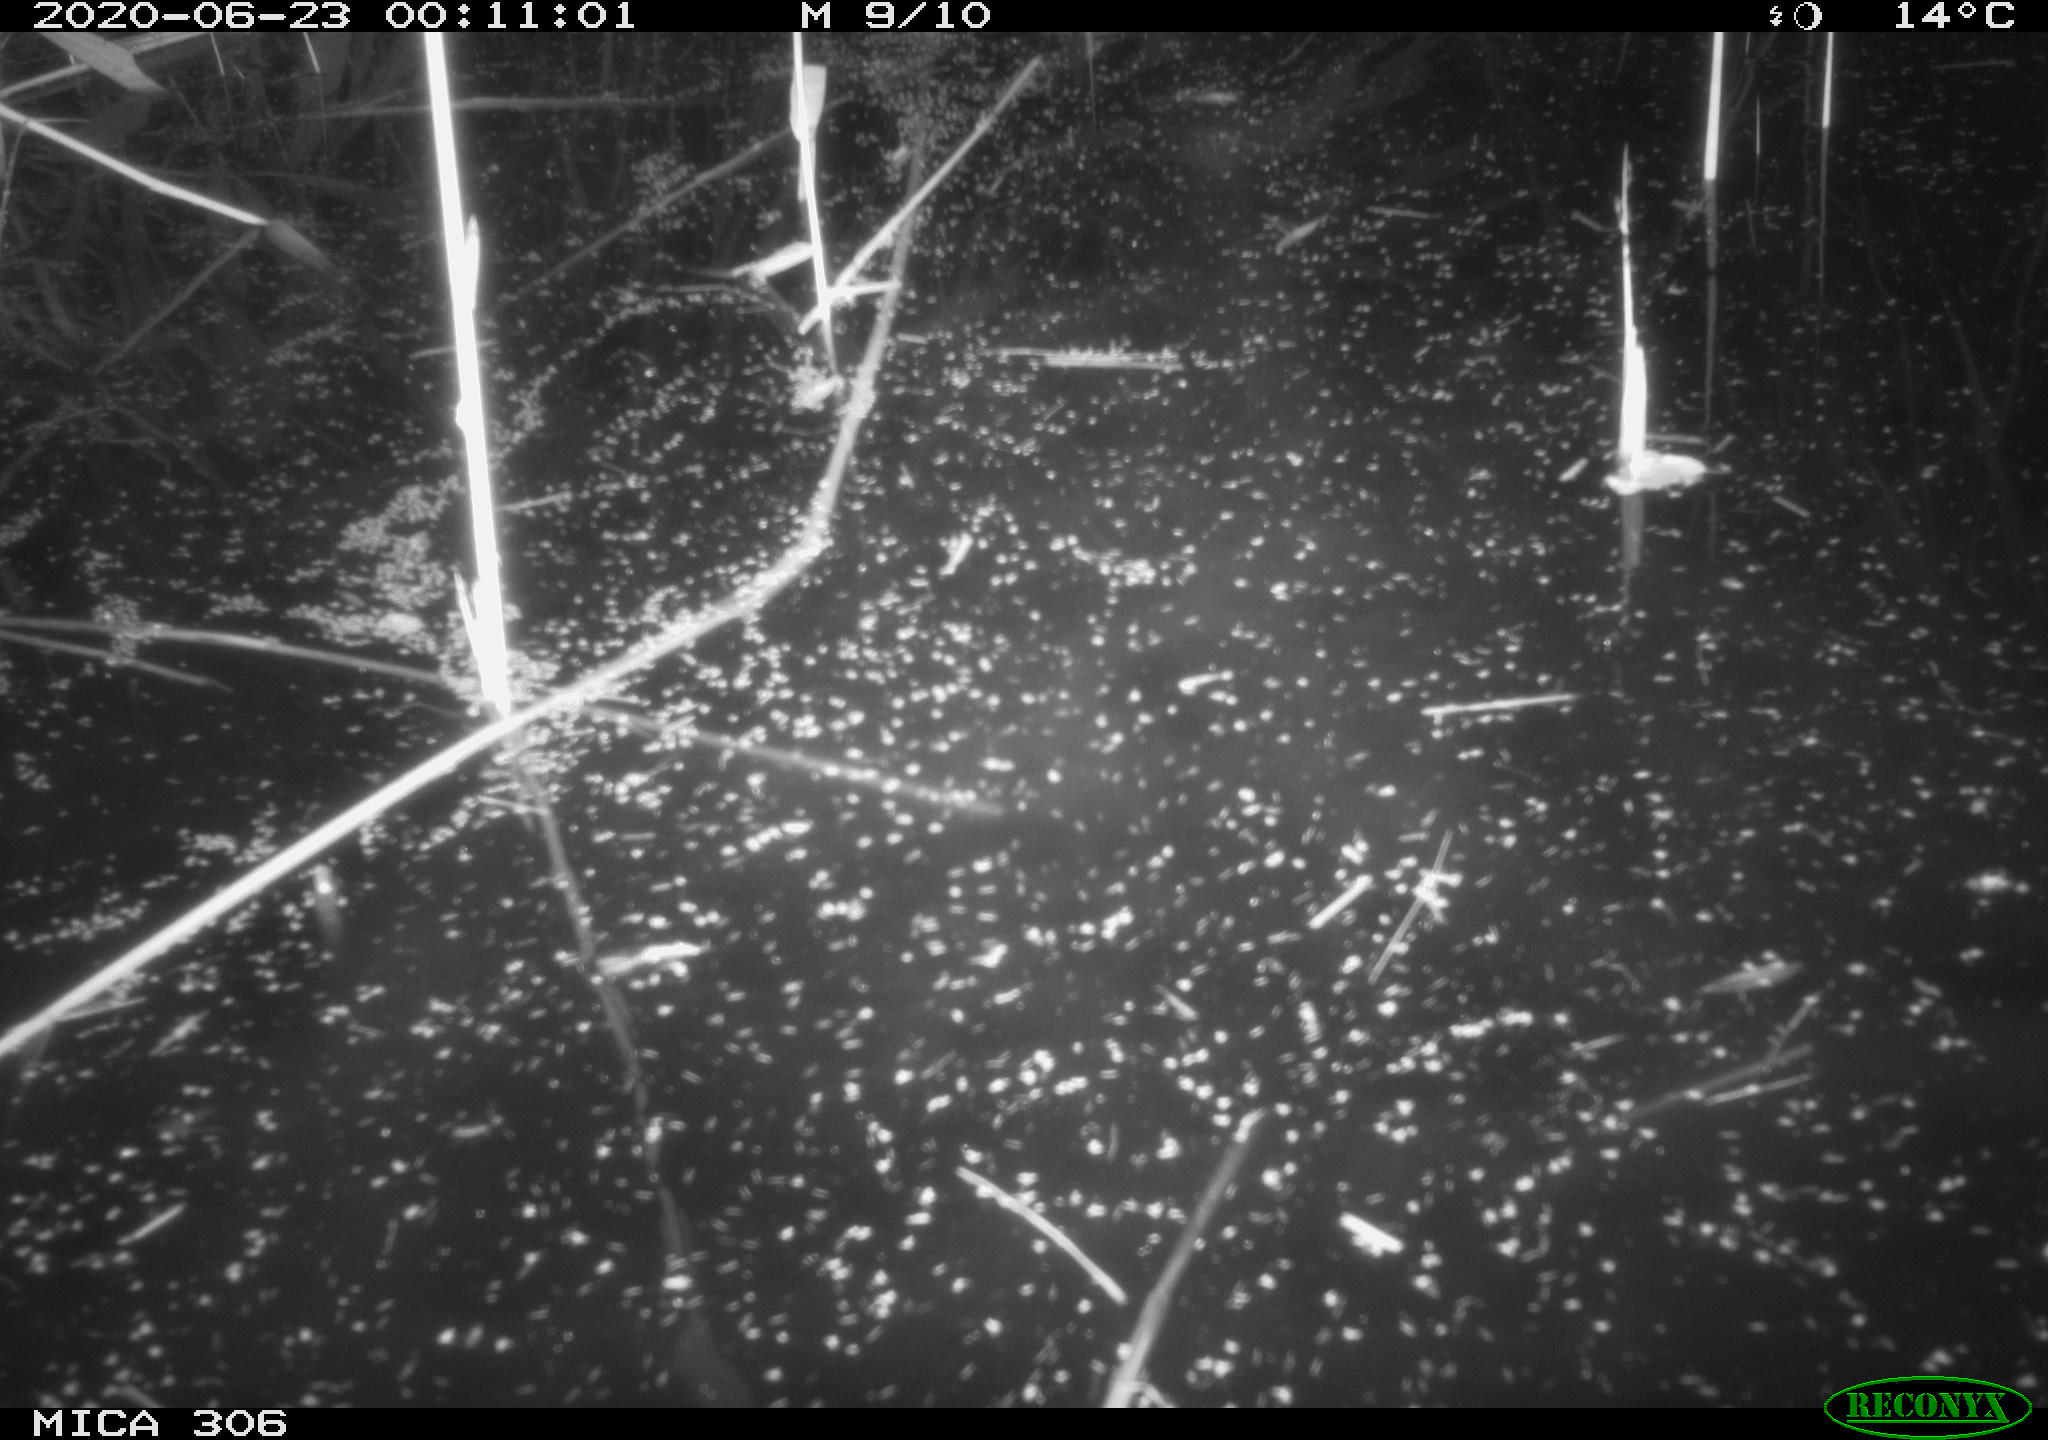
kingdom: Animalia
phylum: Chordata
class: Mammalia
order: Rodentia
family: Cricetidae
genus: Ondatra
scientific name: Ondatra zibethicus
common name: Muskrat
